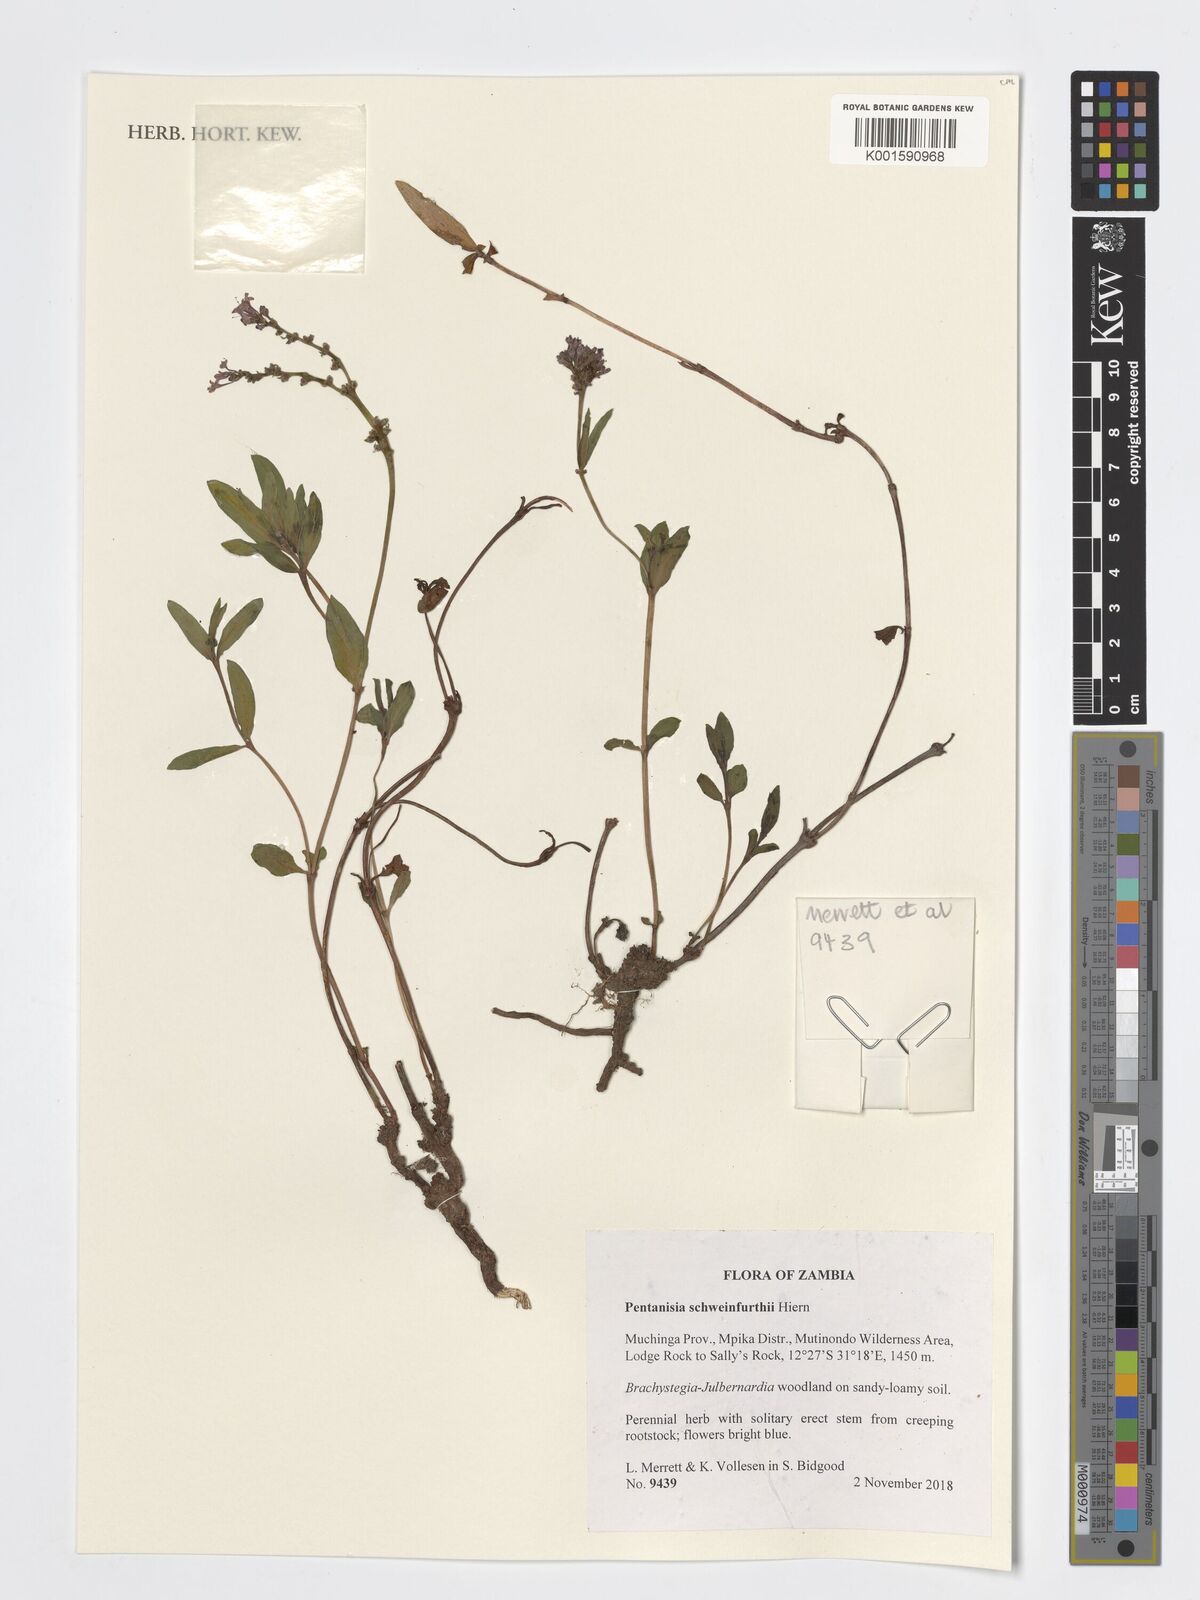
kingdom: Plantae
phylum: Tracheophyta
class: Magnoliopsida
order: Gentianales
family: Rubiaceae
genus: Pentanisia
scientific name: Pentanisia schweinfurthii
